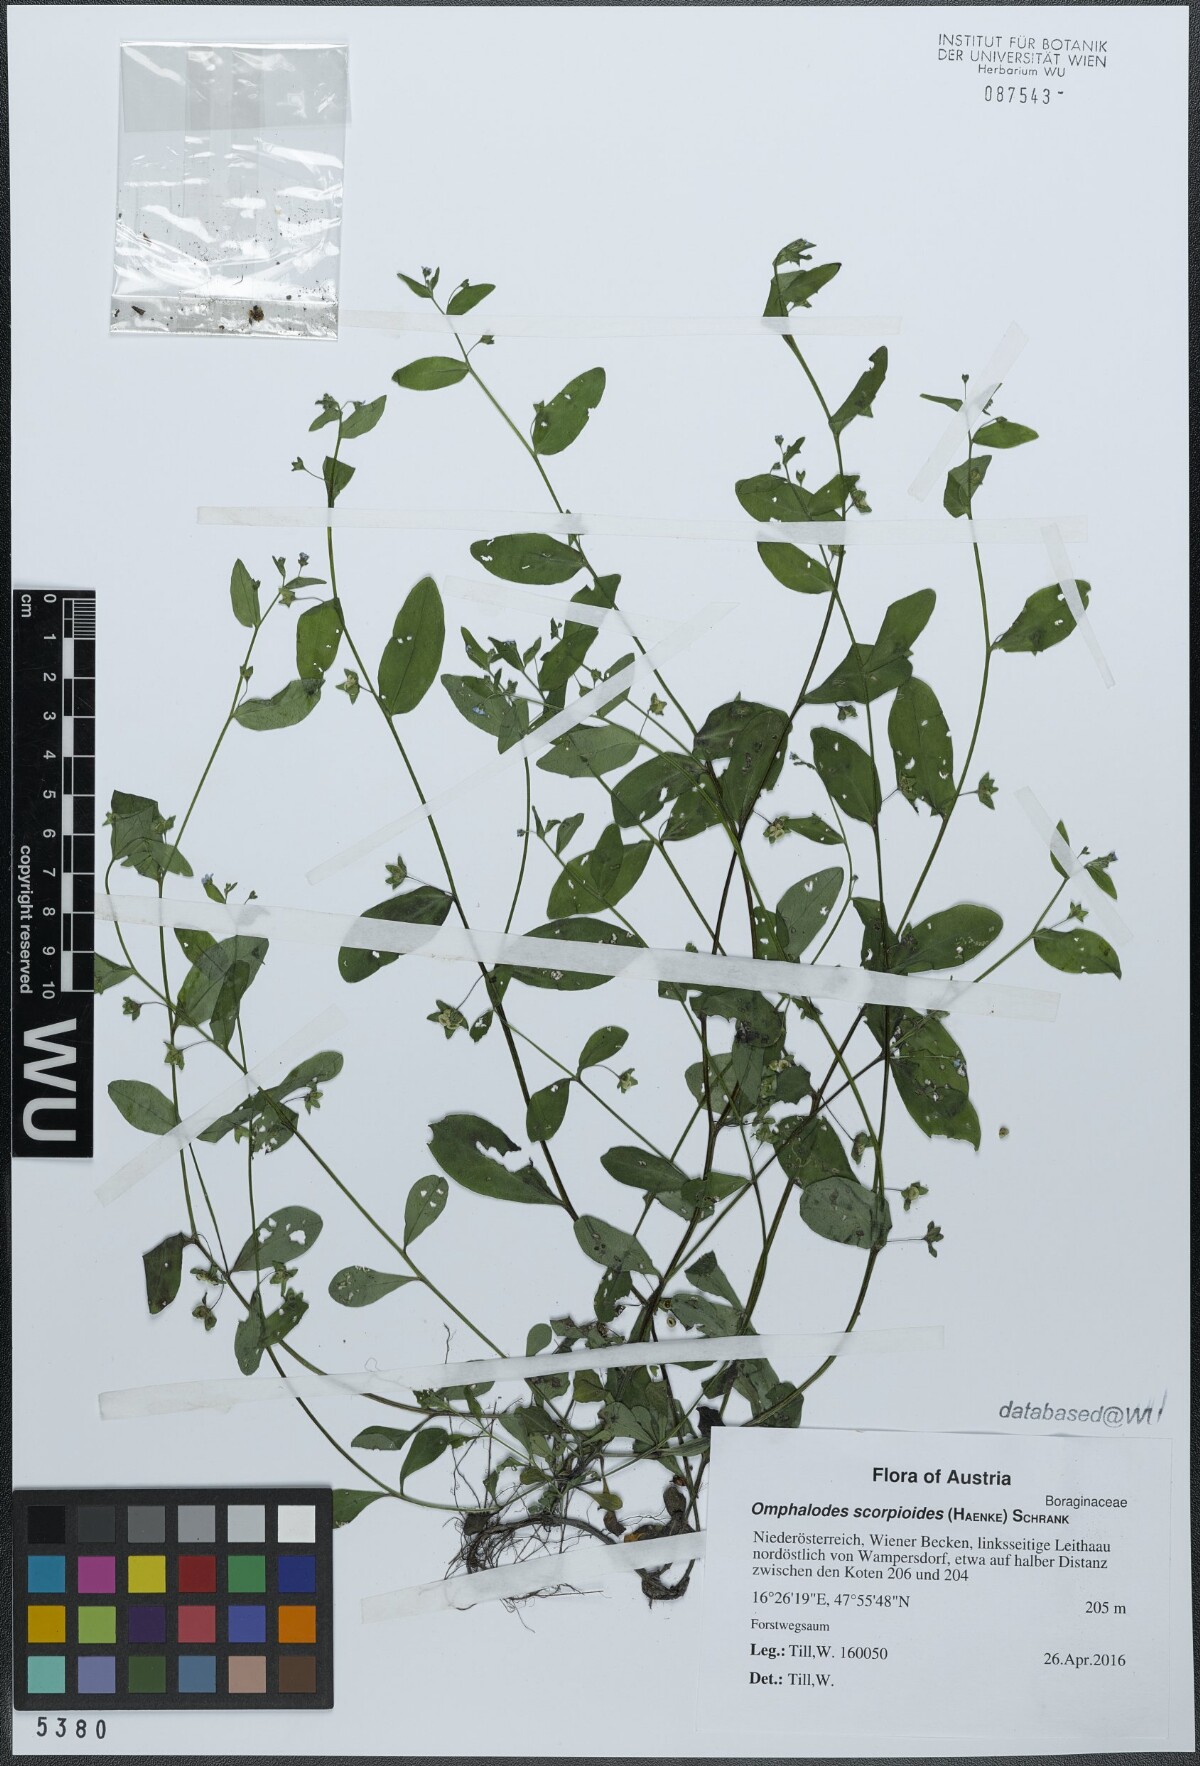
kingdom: Plantae
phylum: Tracheophyta
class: Magnoliopsida
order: Boraginales
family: Boraginaceae
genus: Memoremea
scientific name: Memoremea scorpioides
